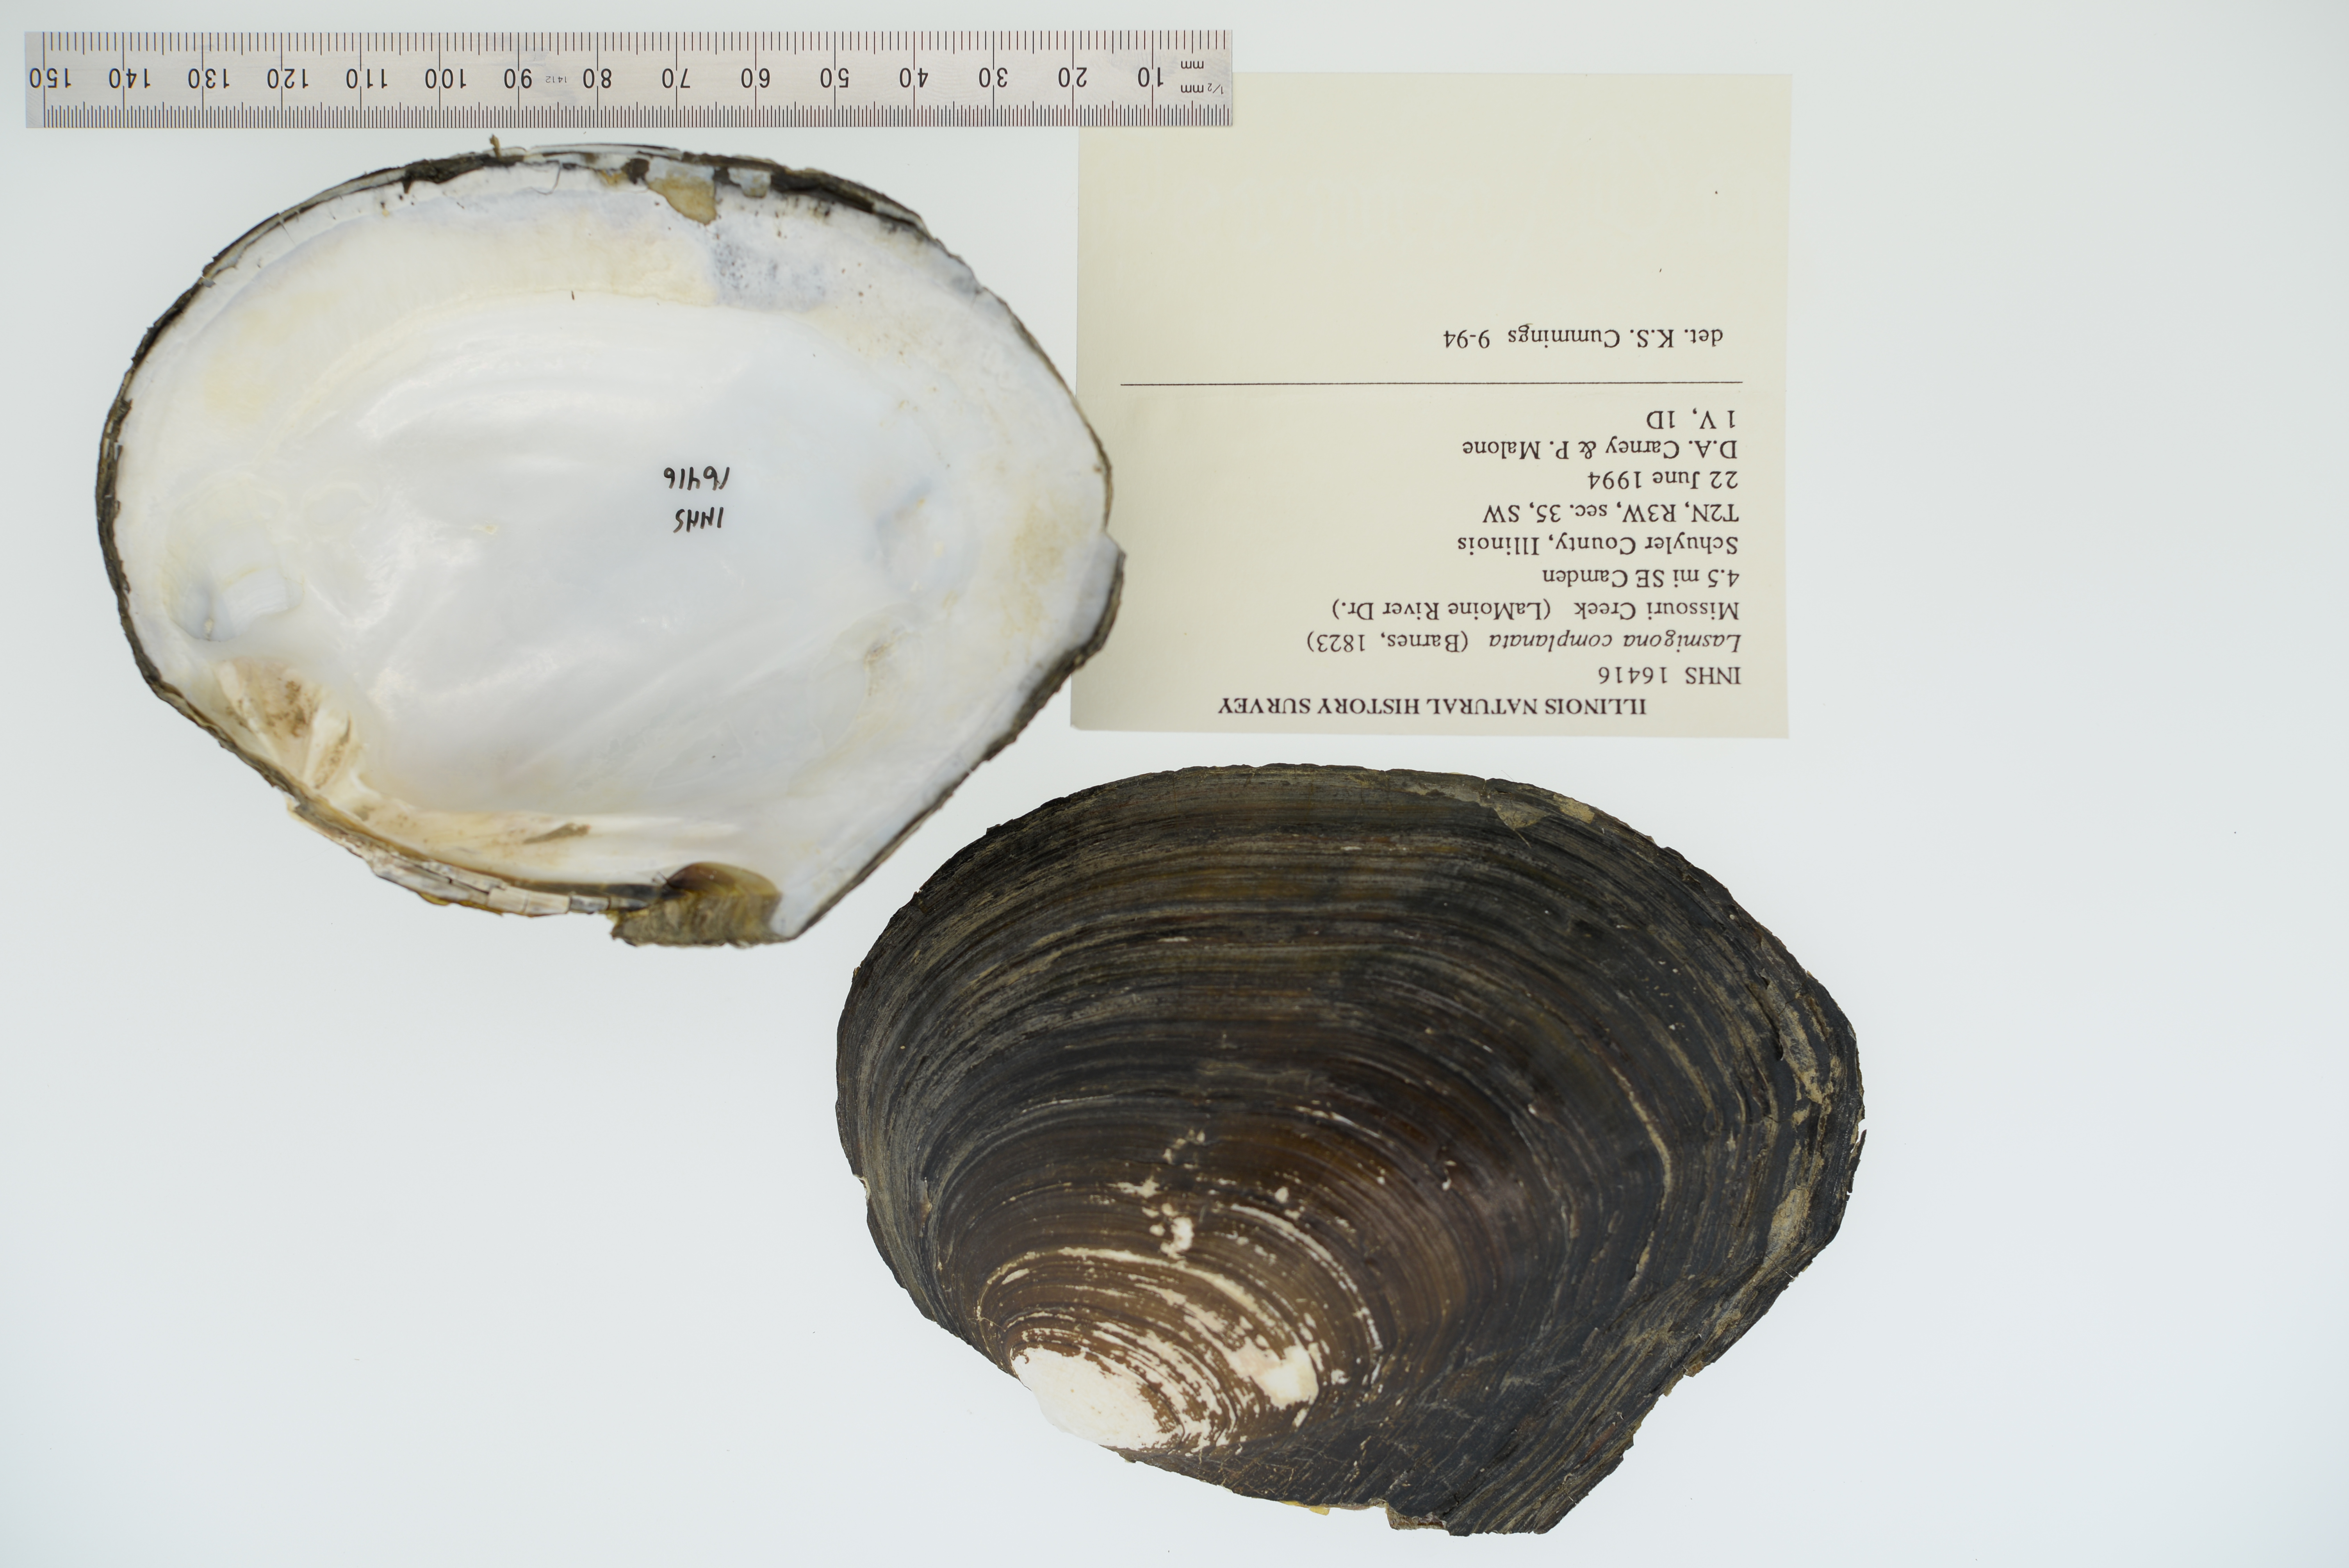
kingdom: Animalia
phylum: Mollusca
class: Bivalvia
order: Unionida
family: Unionidae
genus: Lasmigona
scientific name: Lasmigona complanata
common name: White heelsplitter
